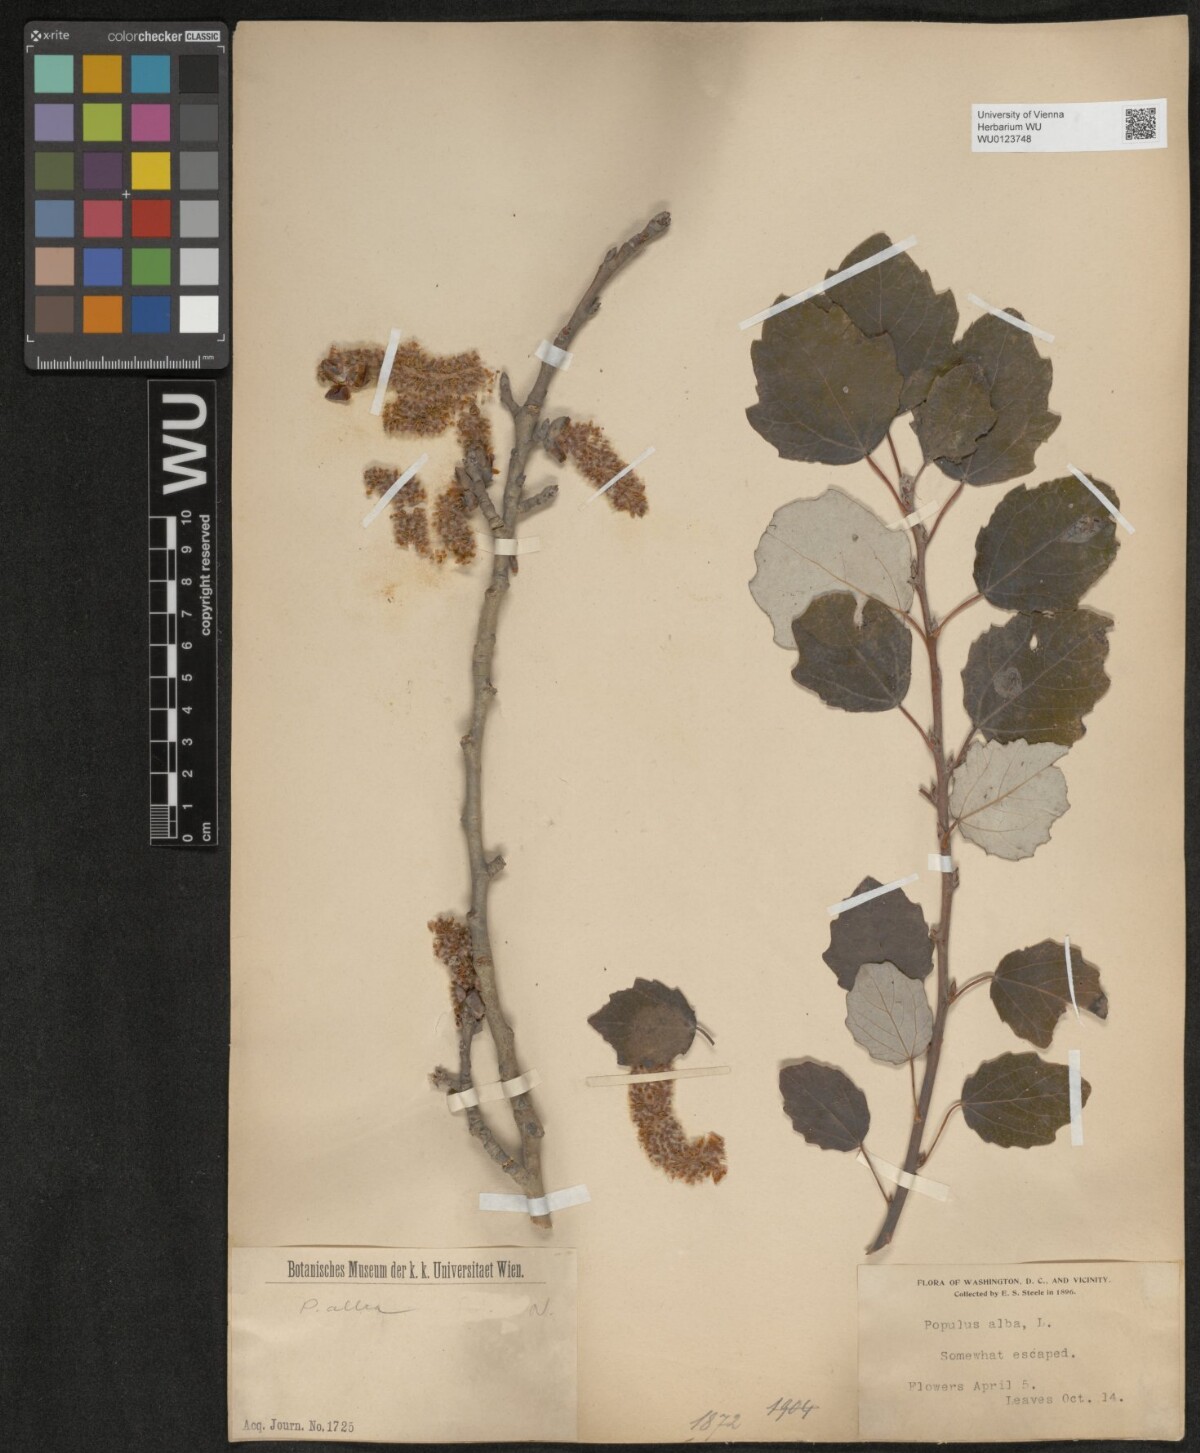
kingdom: Plantae
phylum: Tracheophyta
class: Magnoliopsida
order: Malpighiales
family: Salicaceae
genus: Populus
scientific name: Populus alba
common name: White poplar
